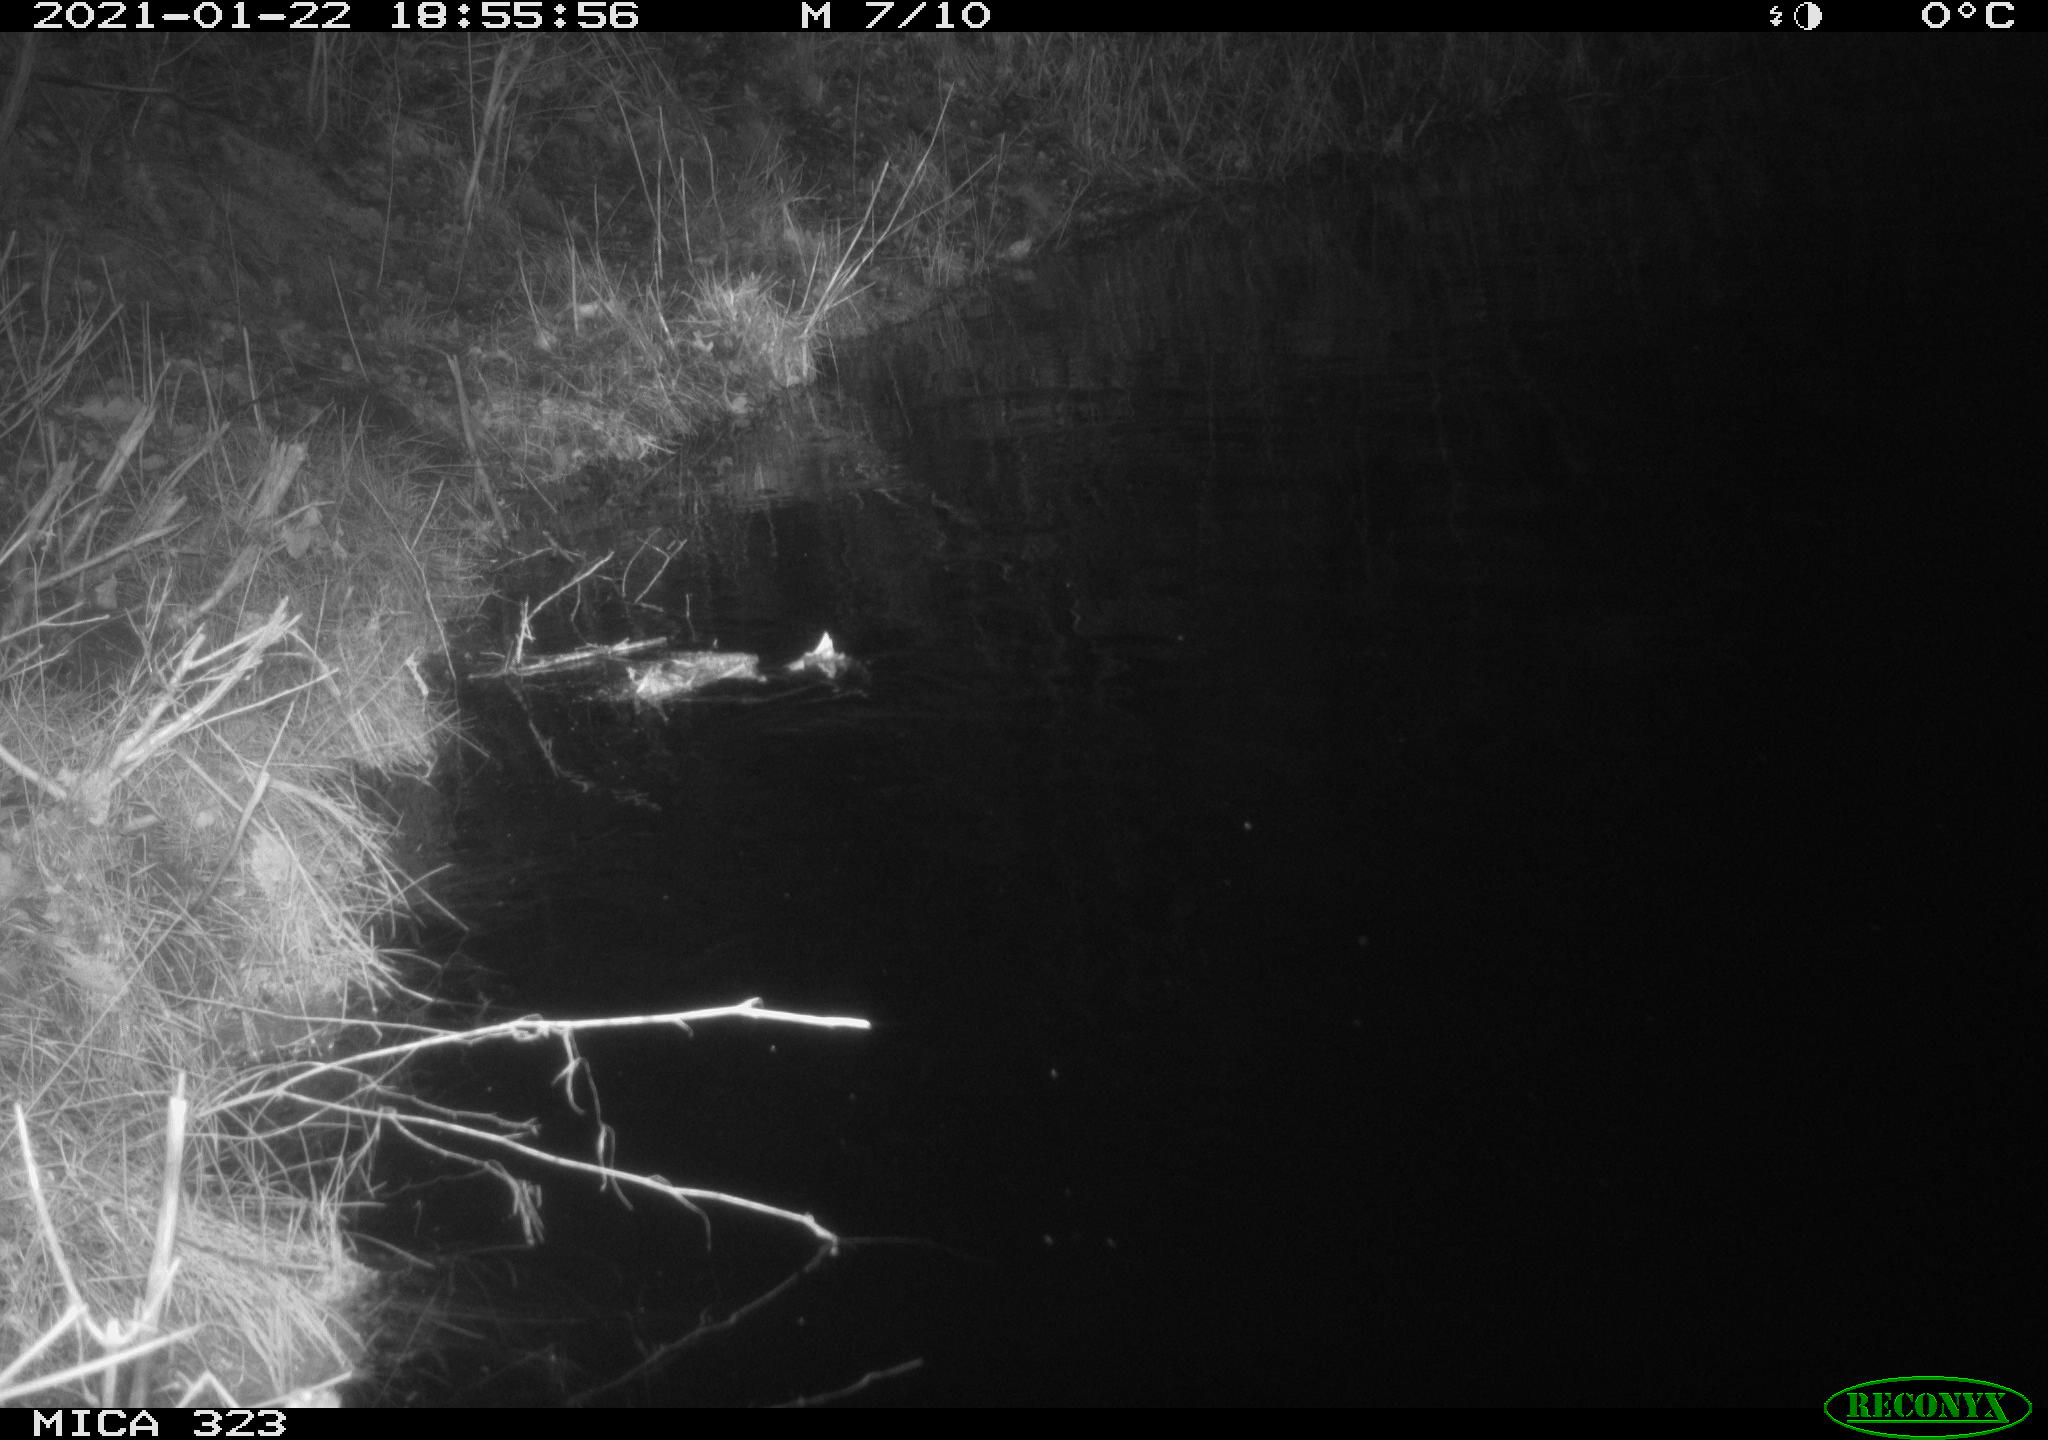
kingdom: Animalia
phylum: Chordata
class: Mammalia
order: Rodentia
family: Myocastoridae
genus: Myocastor
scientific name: Myocastor coypus
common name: Coypu
